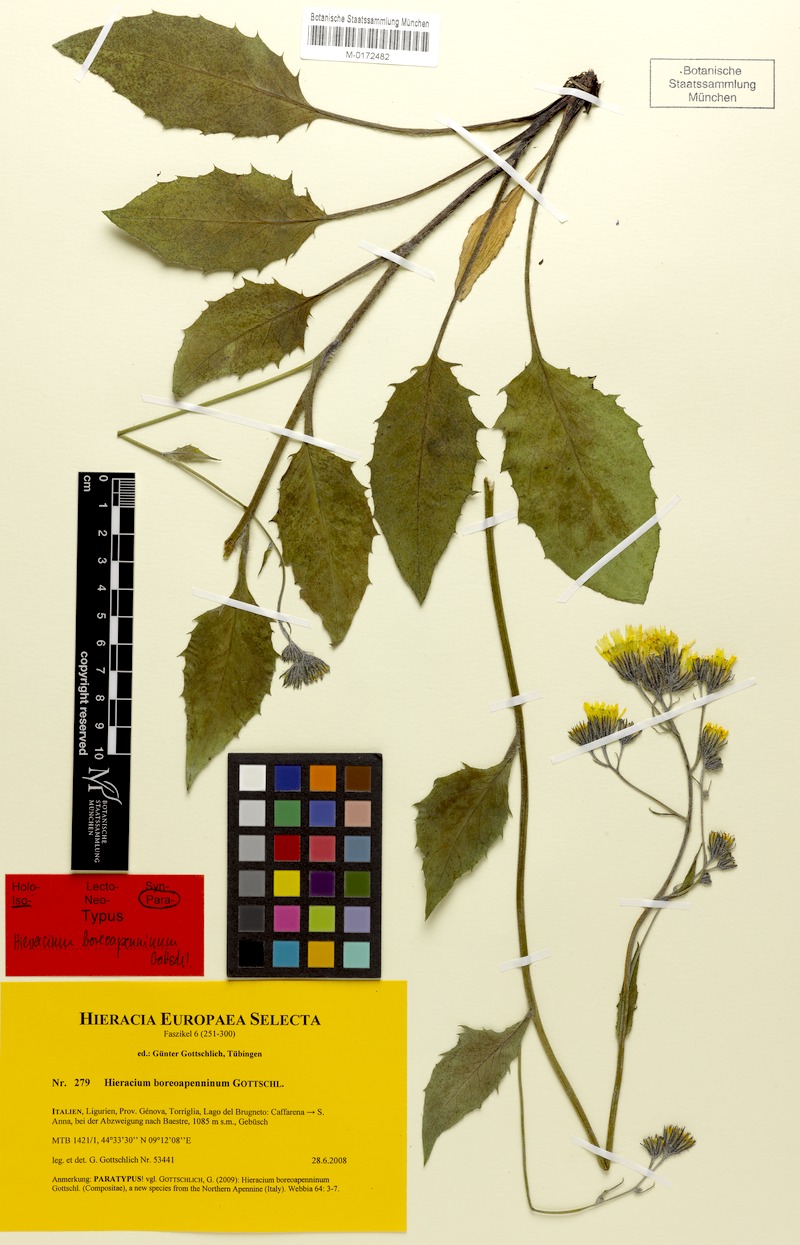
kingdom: Plantae
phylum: Tracheophyta
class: Magnoliopsida
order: Asterales
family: Asteraceae
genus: Hieracium
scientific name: Hieracium boreoapenninum
